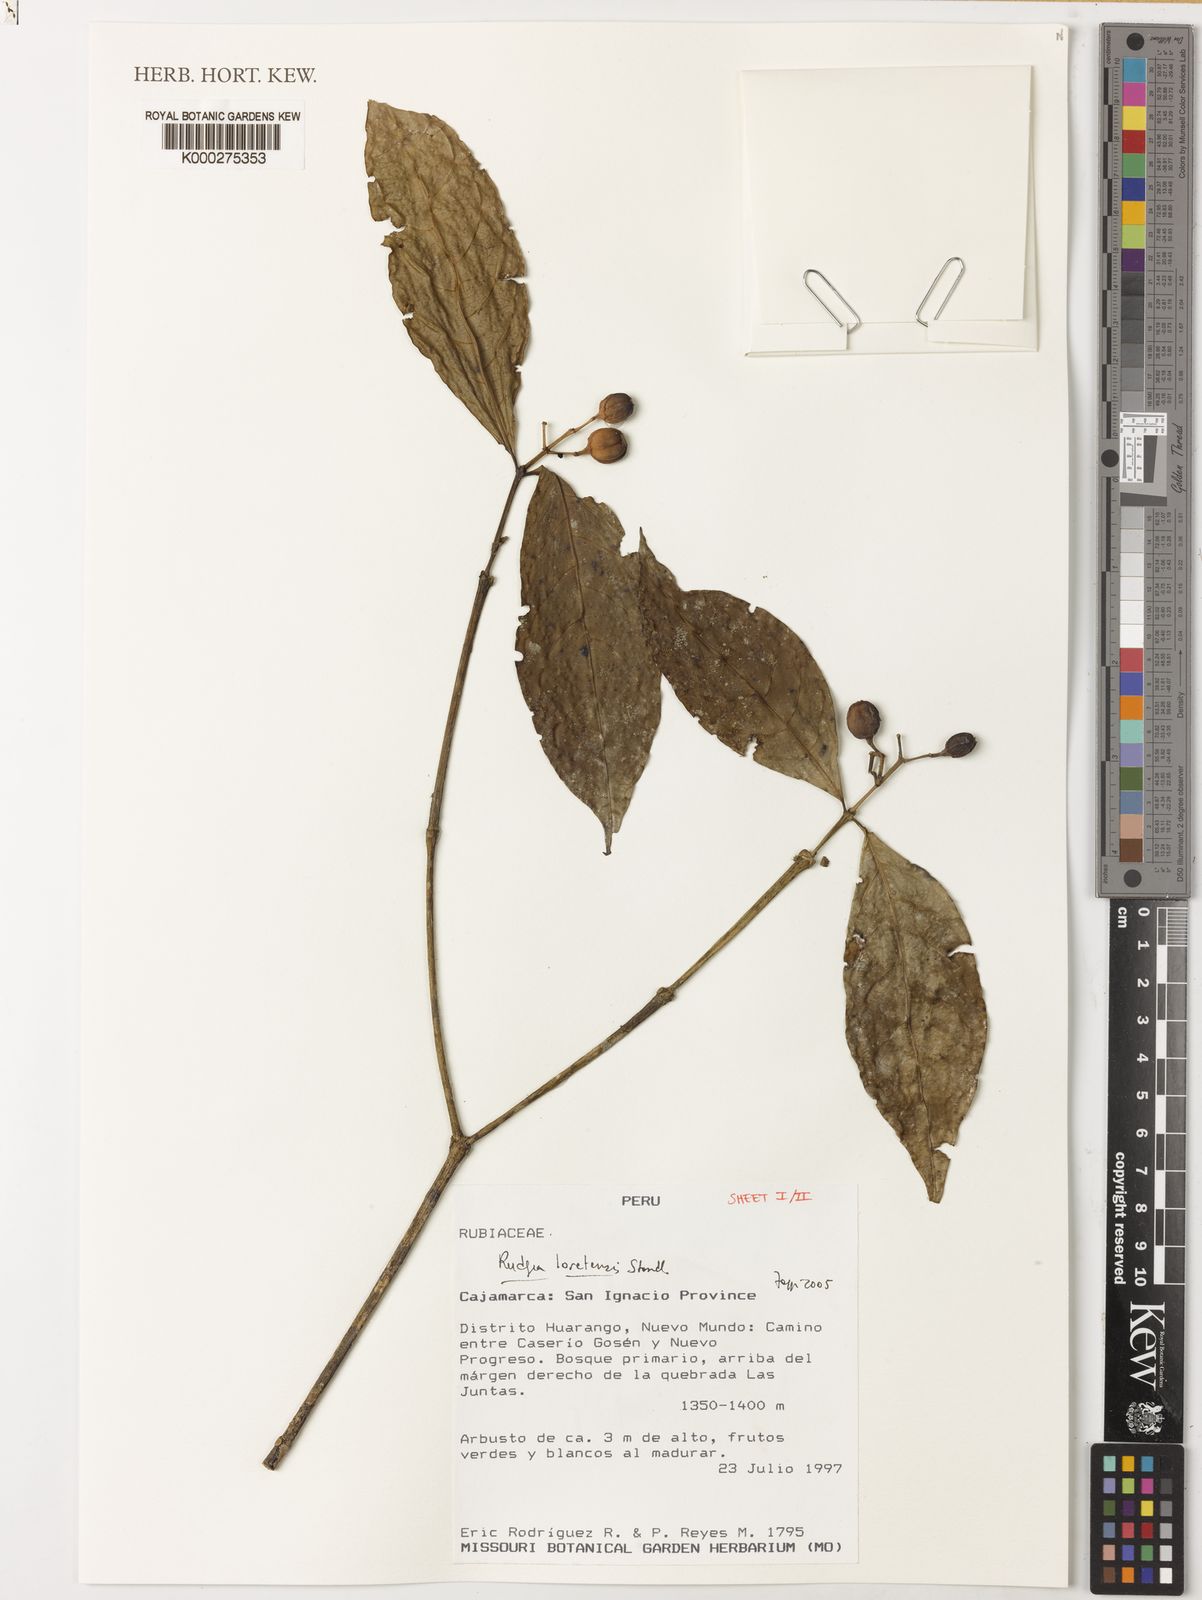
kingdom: Plantae
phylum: Tracheophyta
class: Magnoliopsida
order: Gentianales
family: Rubiaceae
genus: Rudgea
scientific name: Rudgea loretensis
